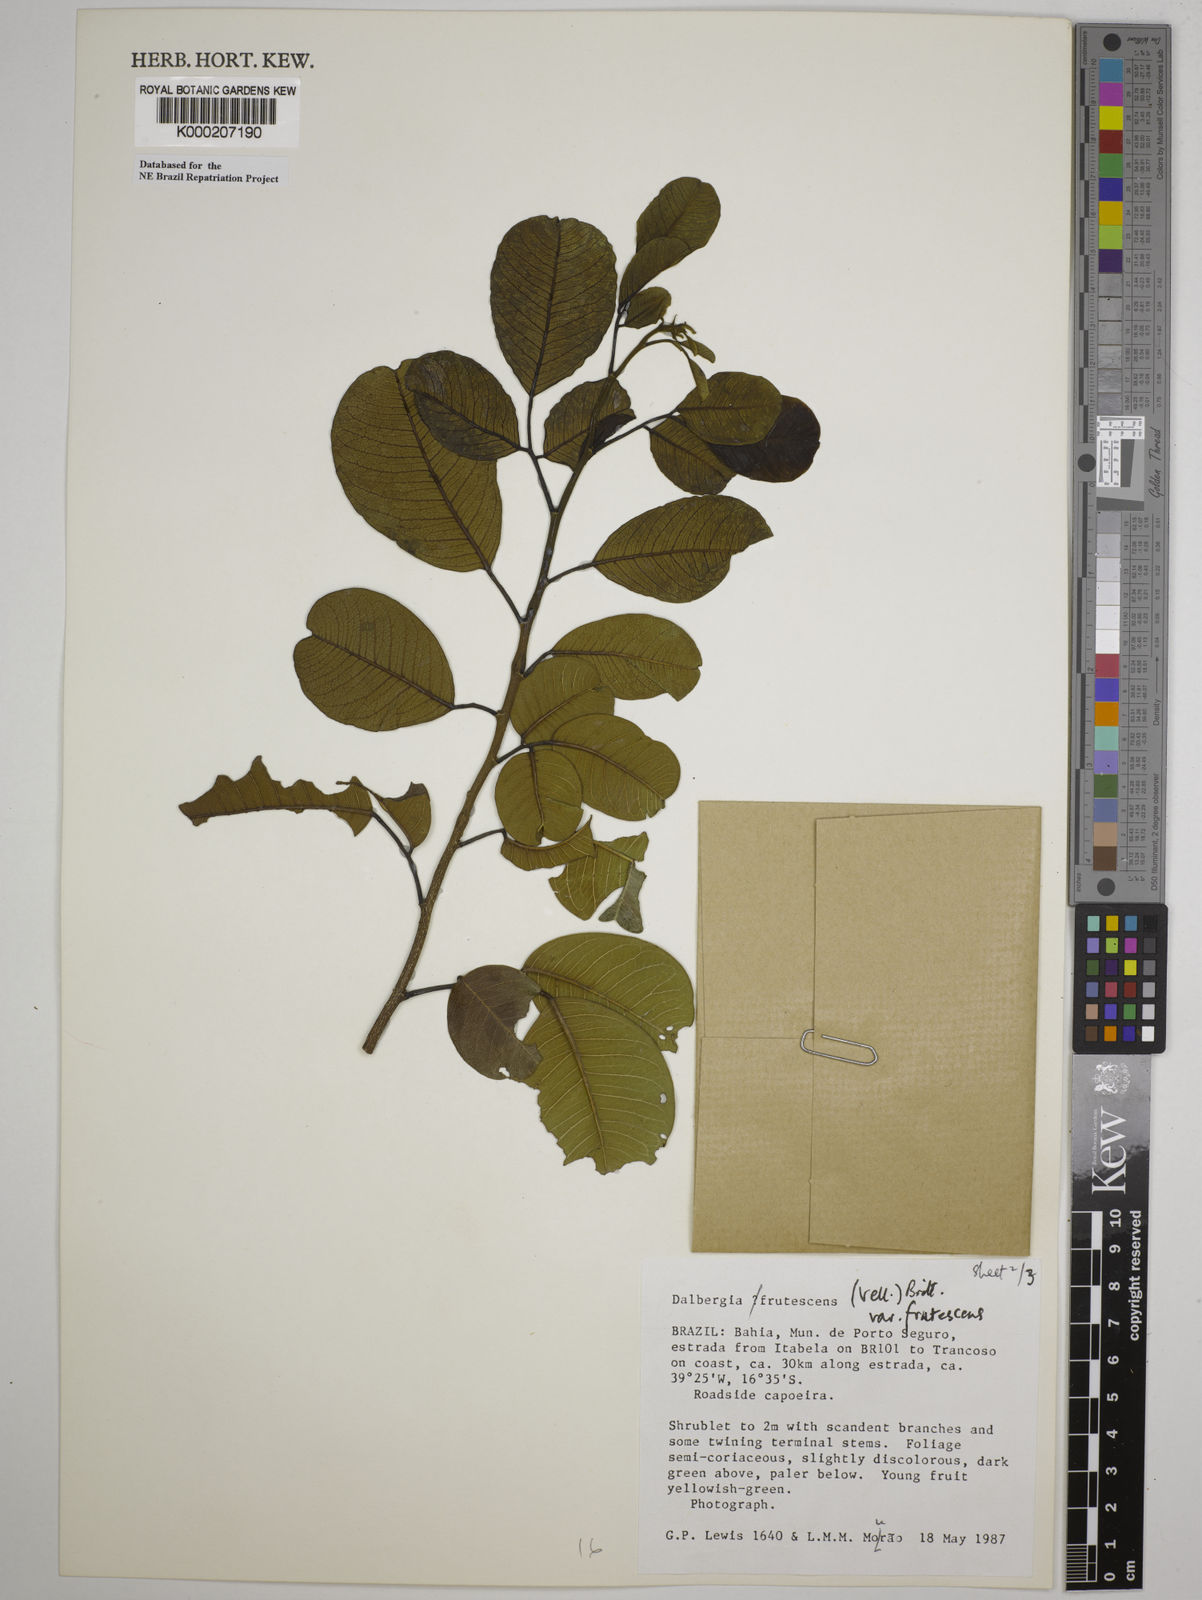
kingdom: Plantae
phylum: Tracheophyta
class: Magnoliopsida
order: Fabales
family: Fabaceae
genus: Dalbergia
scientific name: Dalbergia frutescens
